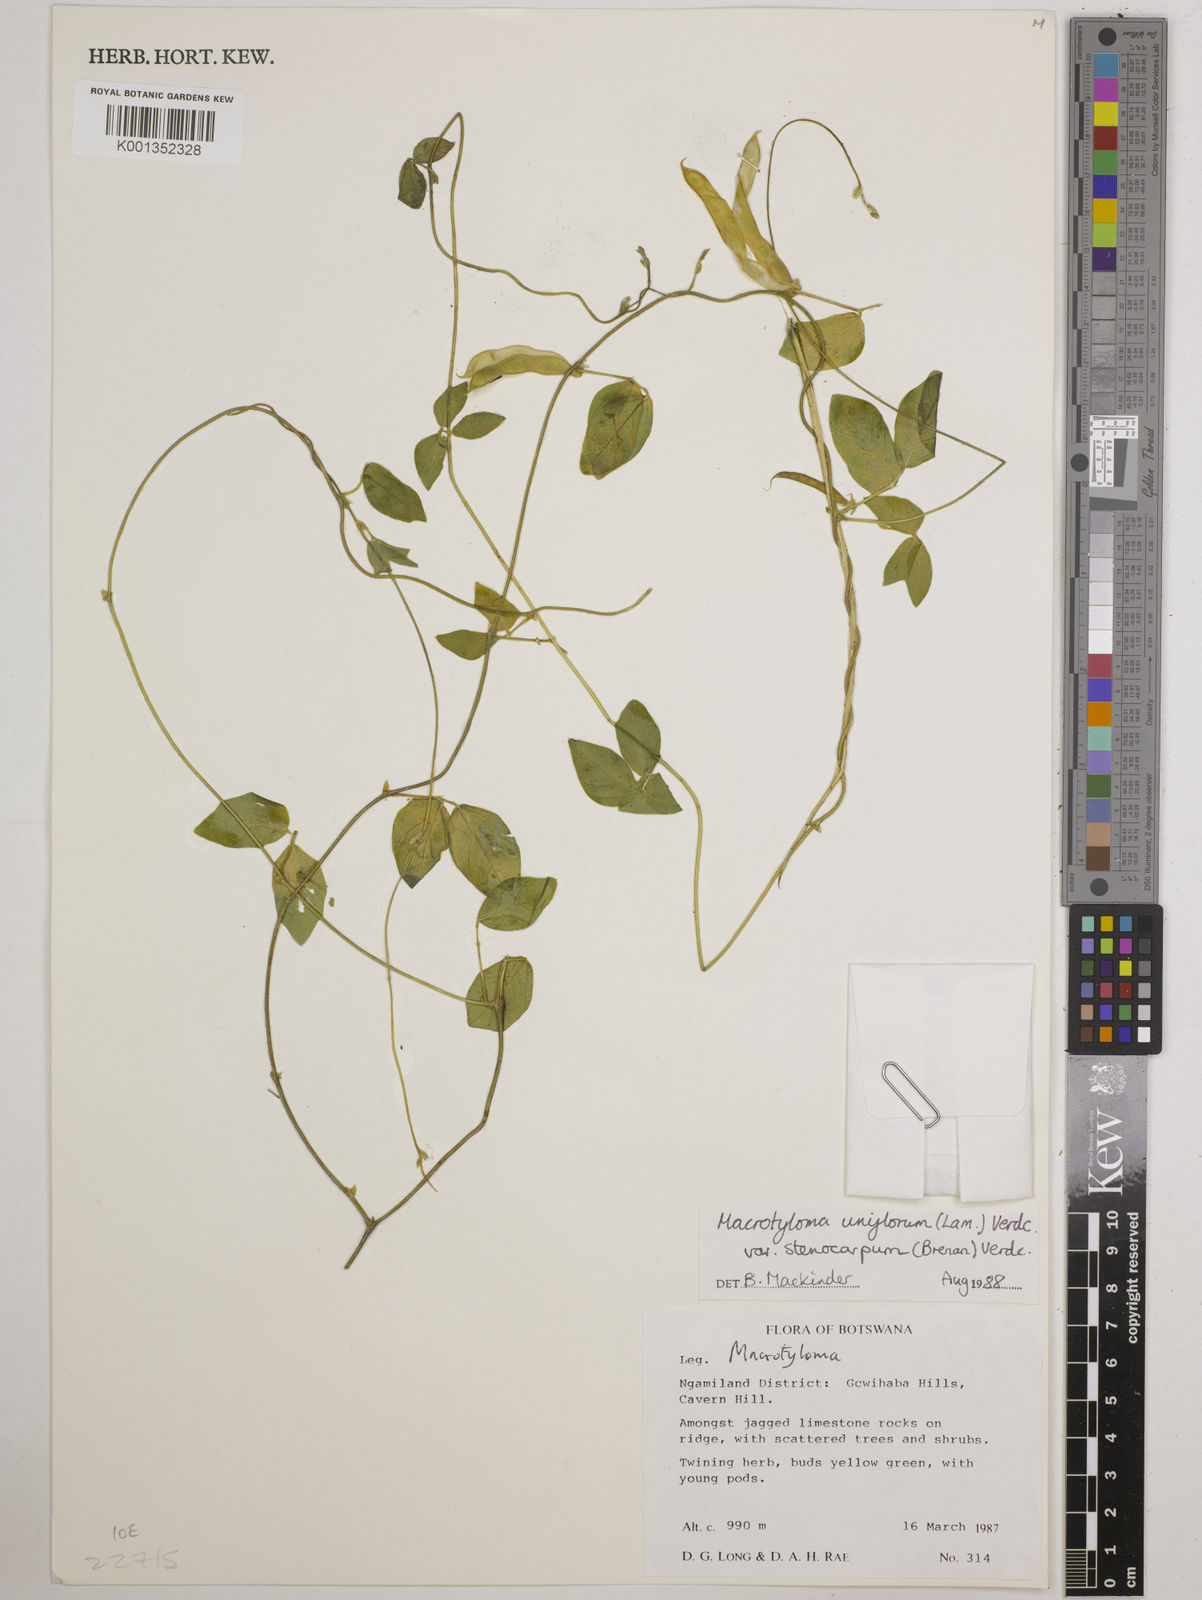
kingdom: Plantae
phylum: Tracheophyta
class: Magnoliopsida
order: Fabales
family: Fabaceae
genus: Macrotyloma
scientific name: Macrotyloma
